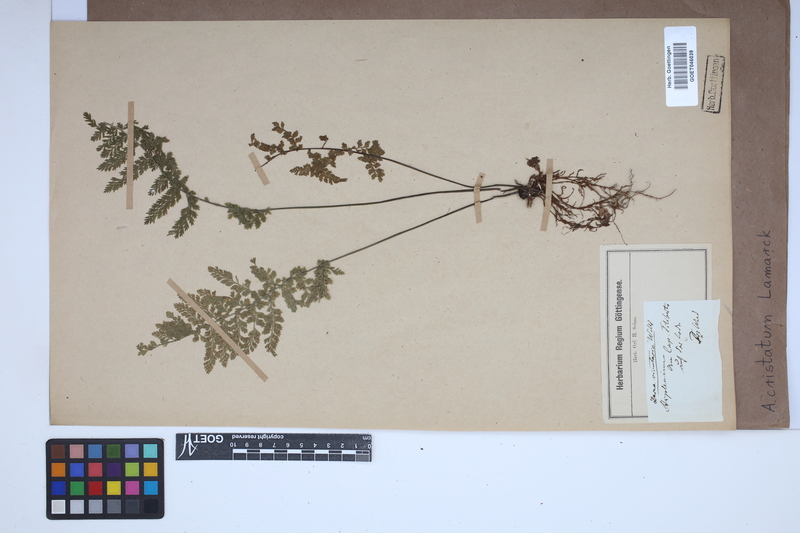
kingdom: Plantae
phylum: Tracheophyta
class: Polypodiopsida
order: Polypodiales
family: Aspleniaceae
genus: Asplenium
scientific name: Asplenium cristatum
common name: Parsley spleenwort
